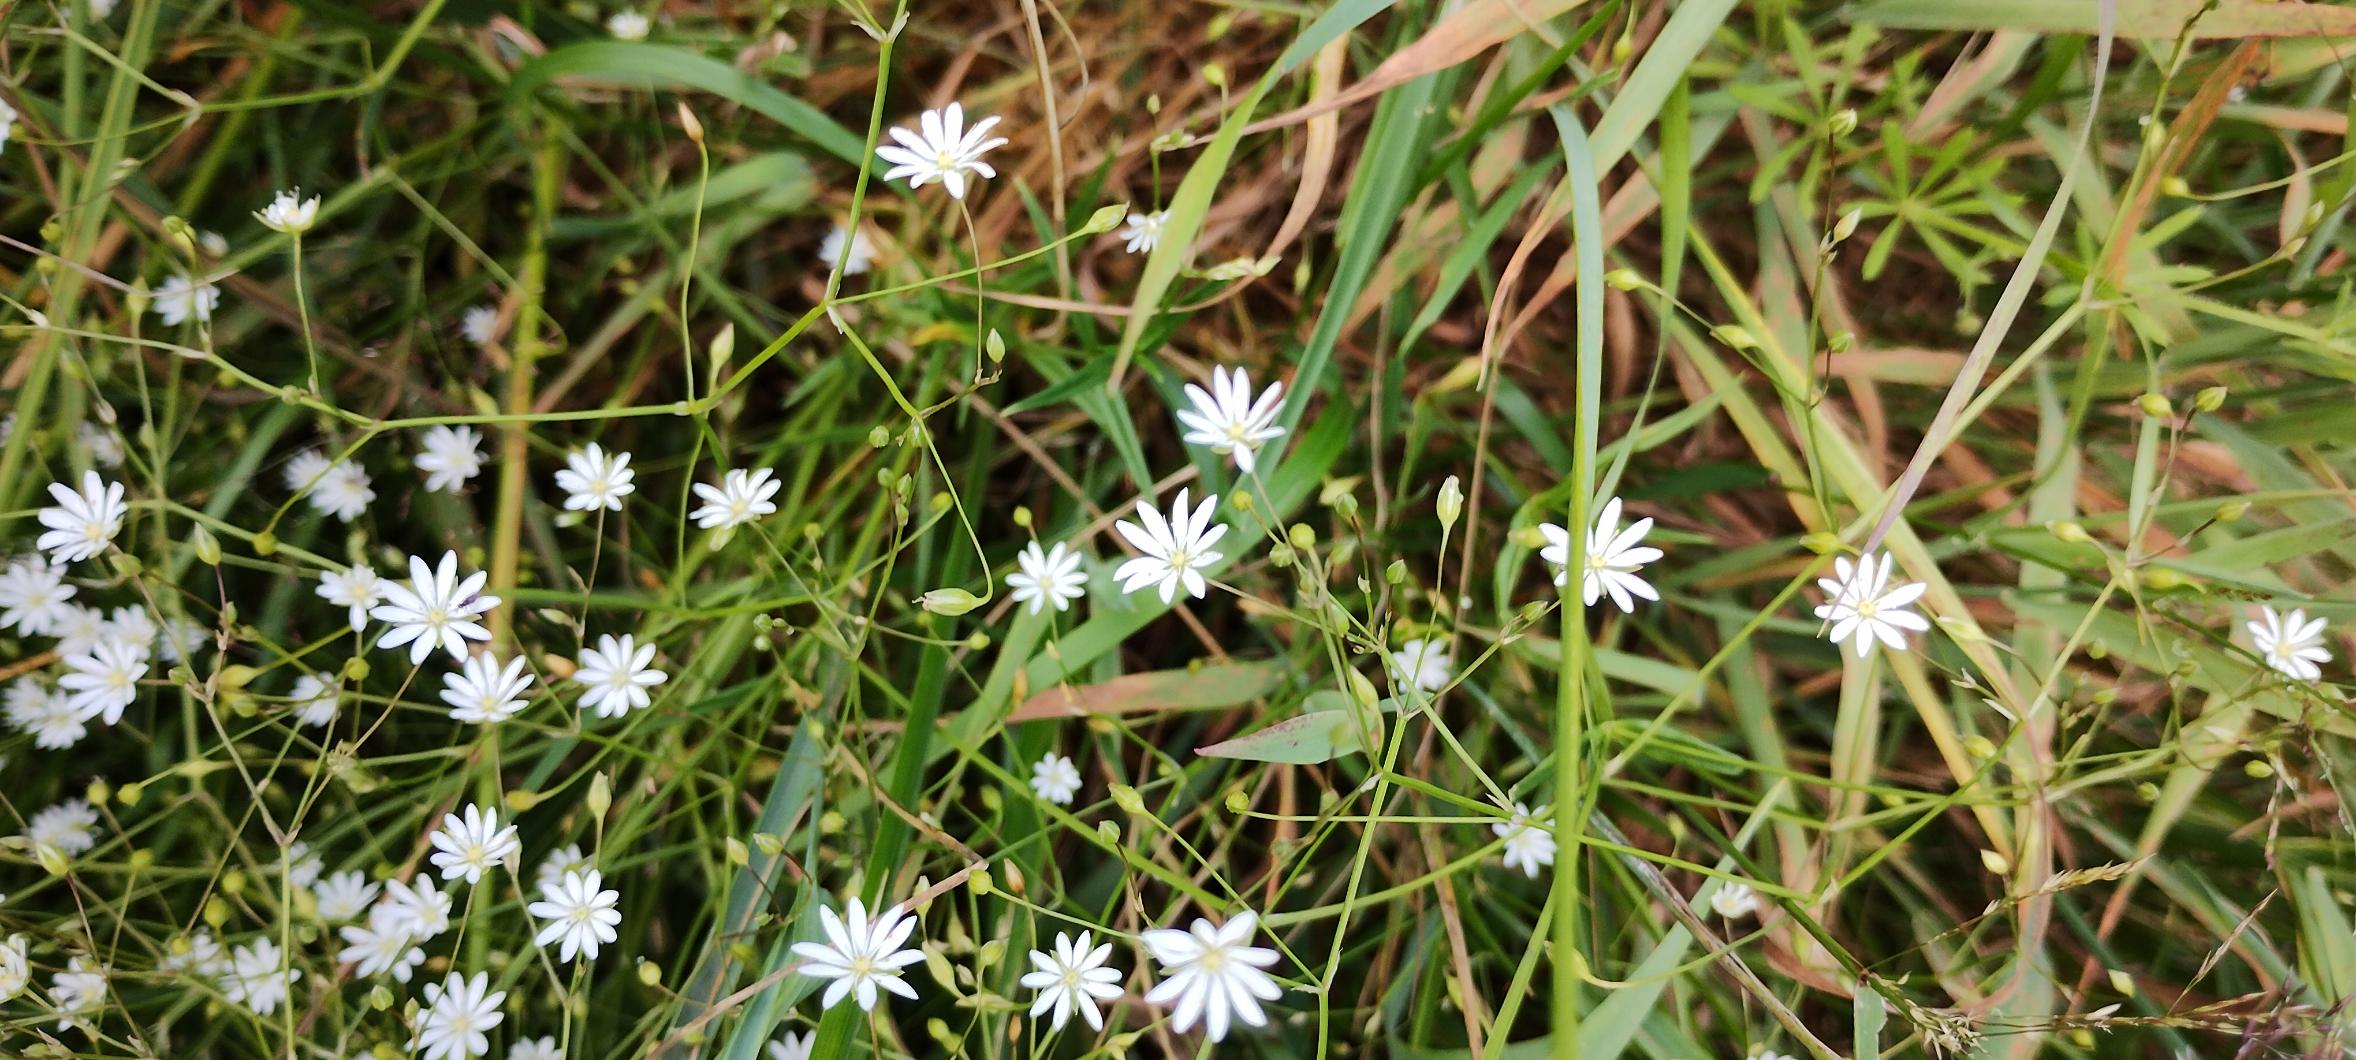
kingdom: Plantae
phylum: Tracheophyta
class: Magnoliopsida
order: Caryophyllales
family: Caryophyllaceae
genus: Stellaria
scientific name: Stellaria graminea
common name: Græsbladet fladstjerne
